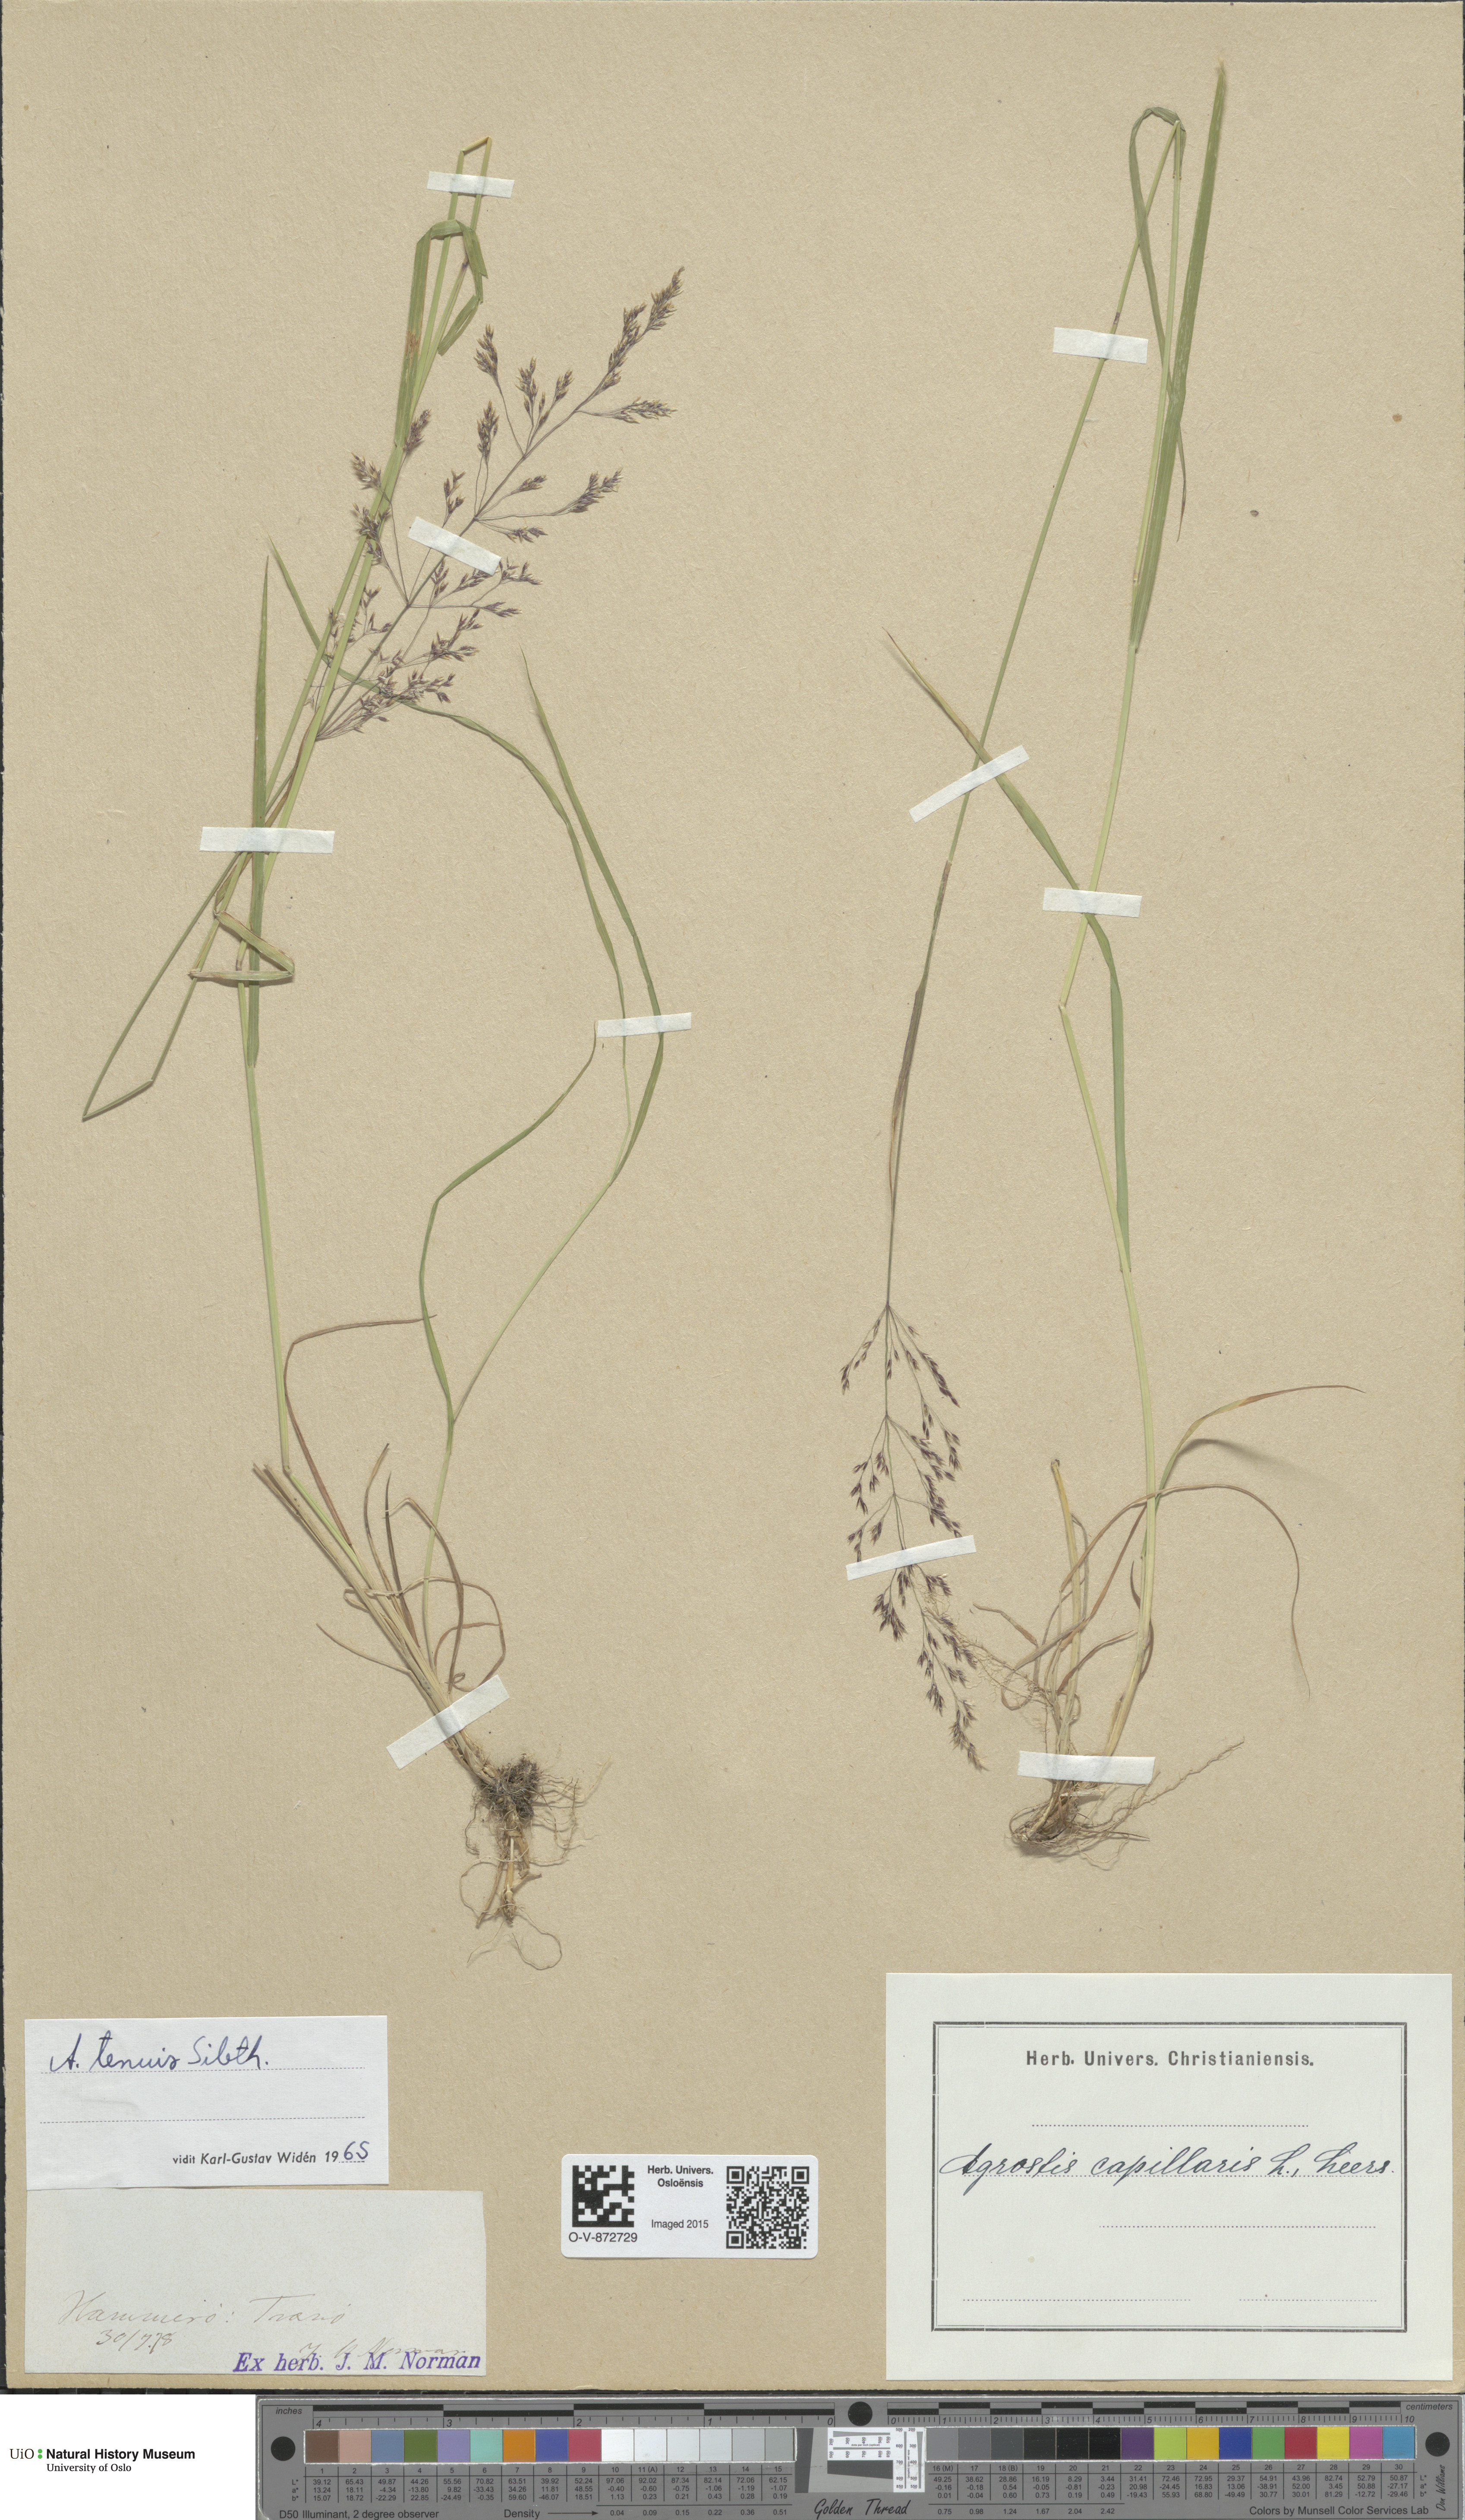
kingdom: Plantae
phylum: Tracheophyta
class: Liliopsida
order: Poales
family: Poaceae
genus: Agrostis
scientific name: Agrostis capillaris
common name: Colonial bentgrass
